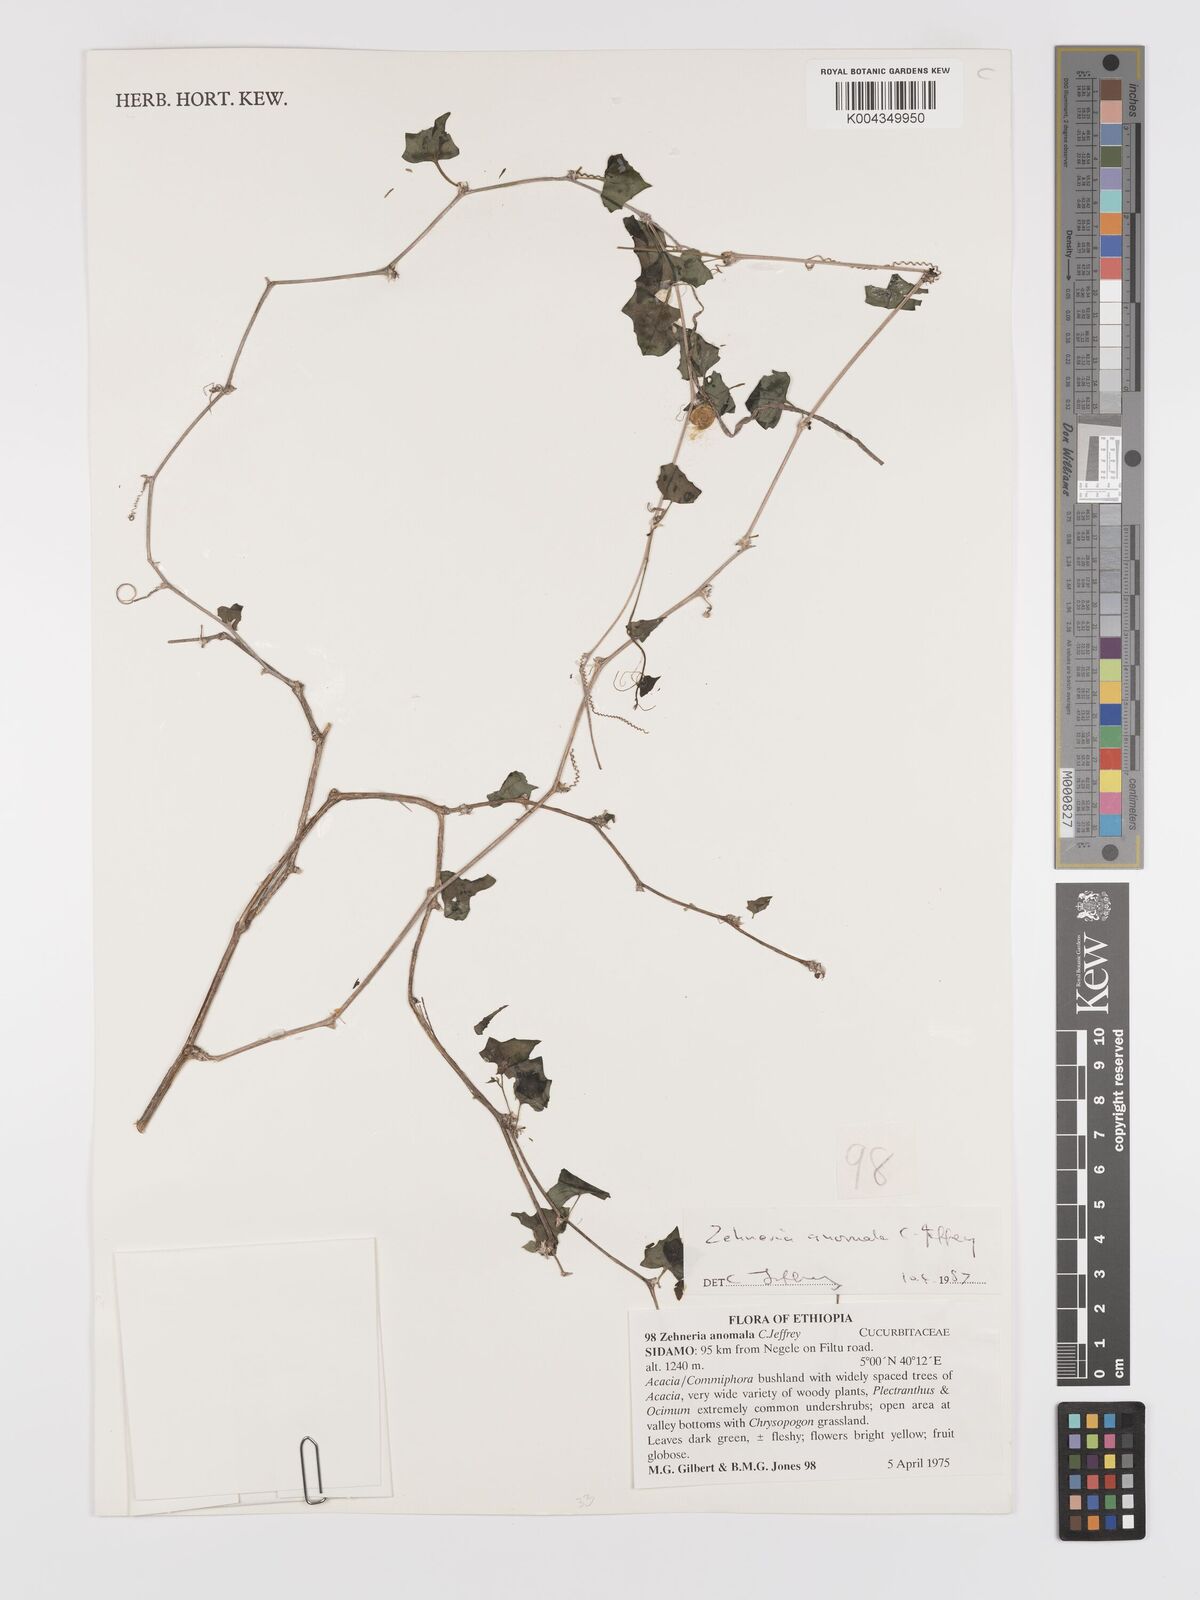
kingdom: Plantae
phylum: Tracheophyta
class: Magnoliopsida
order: Cucurbitales
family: Cucurbitaceae
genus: Zehneria
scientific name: Zehneria anomala
